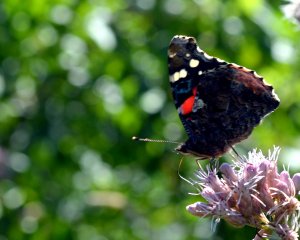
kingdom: Animalia
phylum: Arthropoda
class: Insecta
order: Lepidoptera
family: Nymphalidae
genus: Vanessa
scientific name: Vanessa atalanta
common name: Red Admiral
